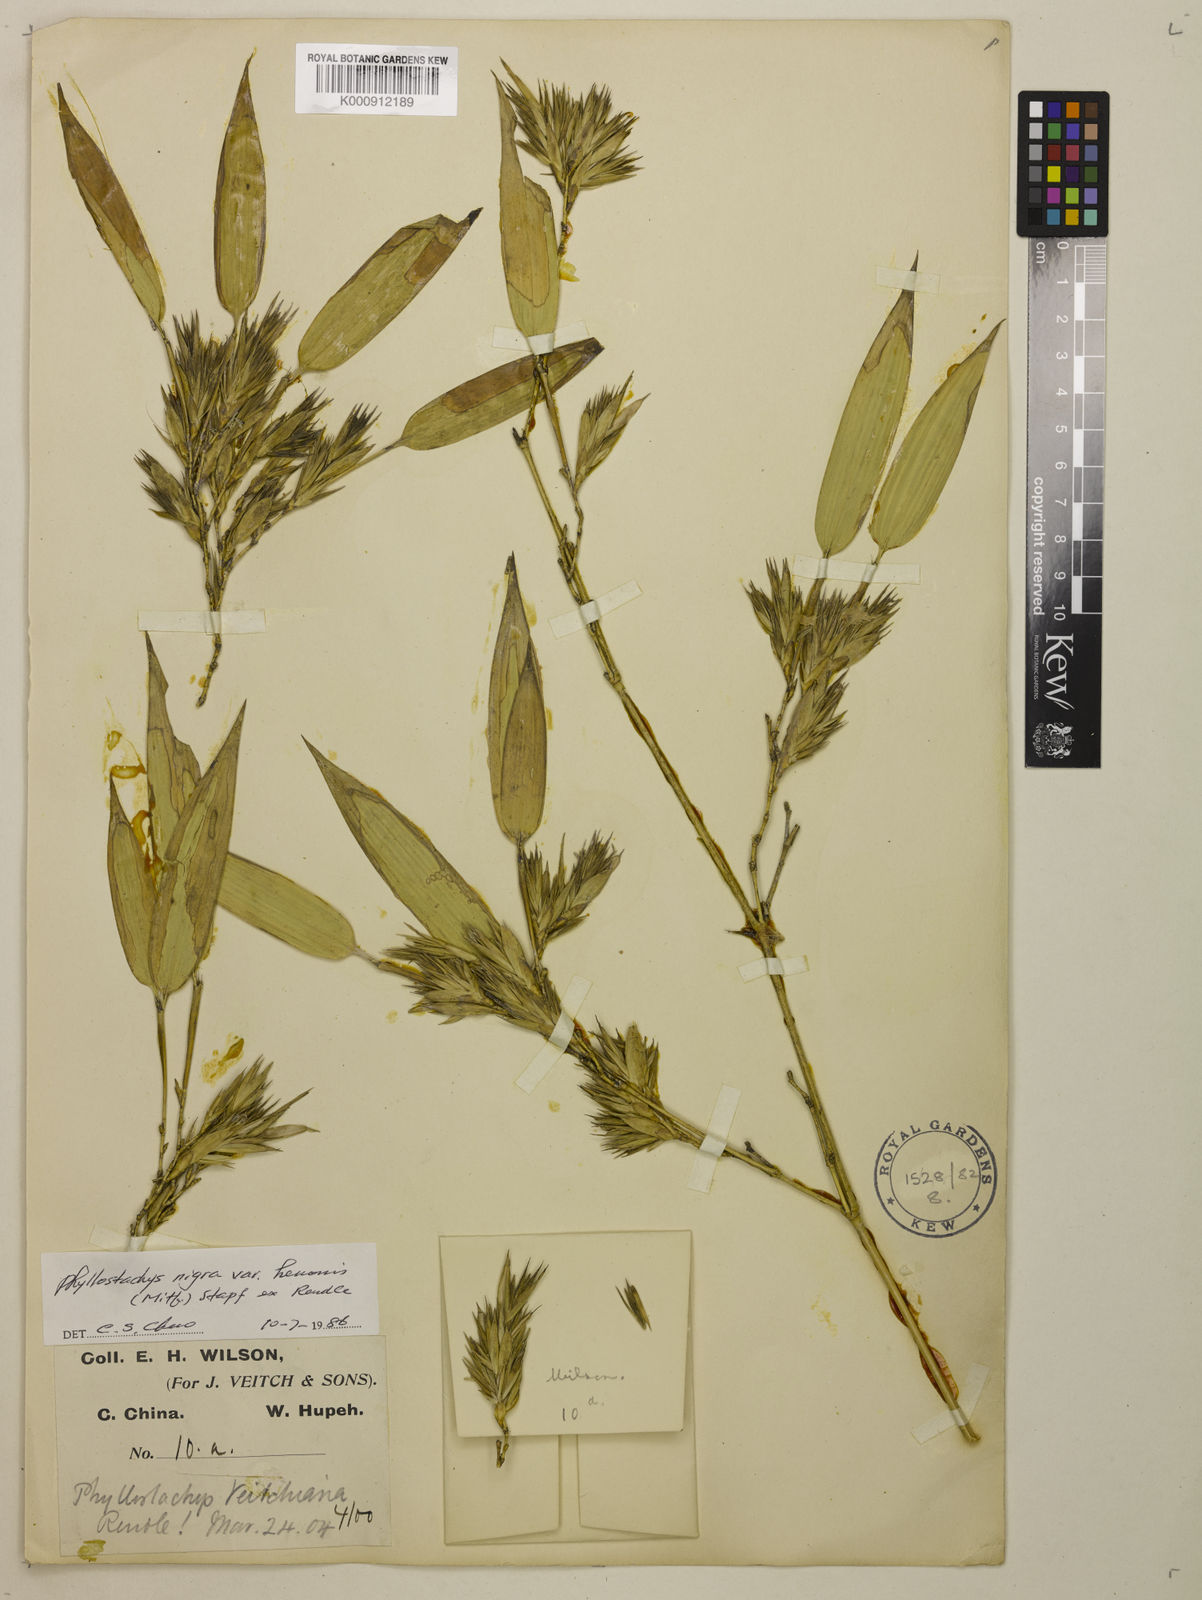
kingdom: Plantae
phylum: Tracheophyta
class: Liliopsida
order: Poales
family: Poaceae
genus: Phyllostachys
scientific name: Phyllostachys nigra
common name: Black bamboo
